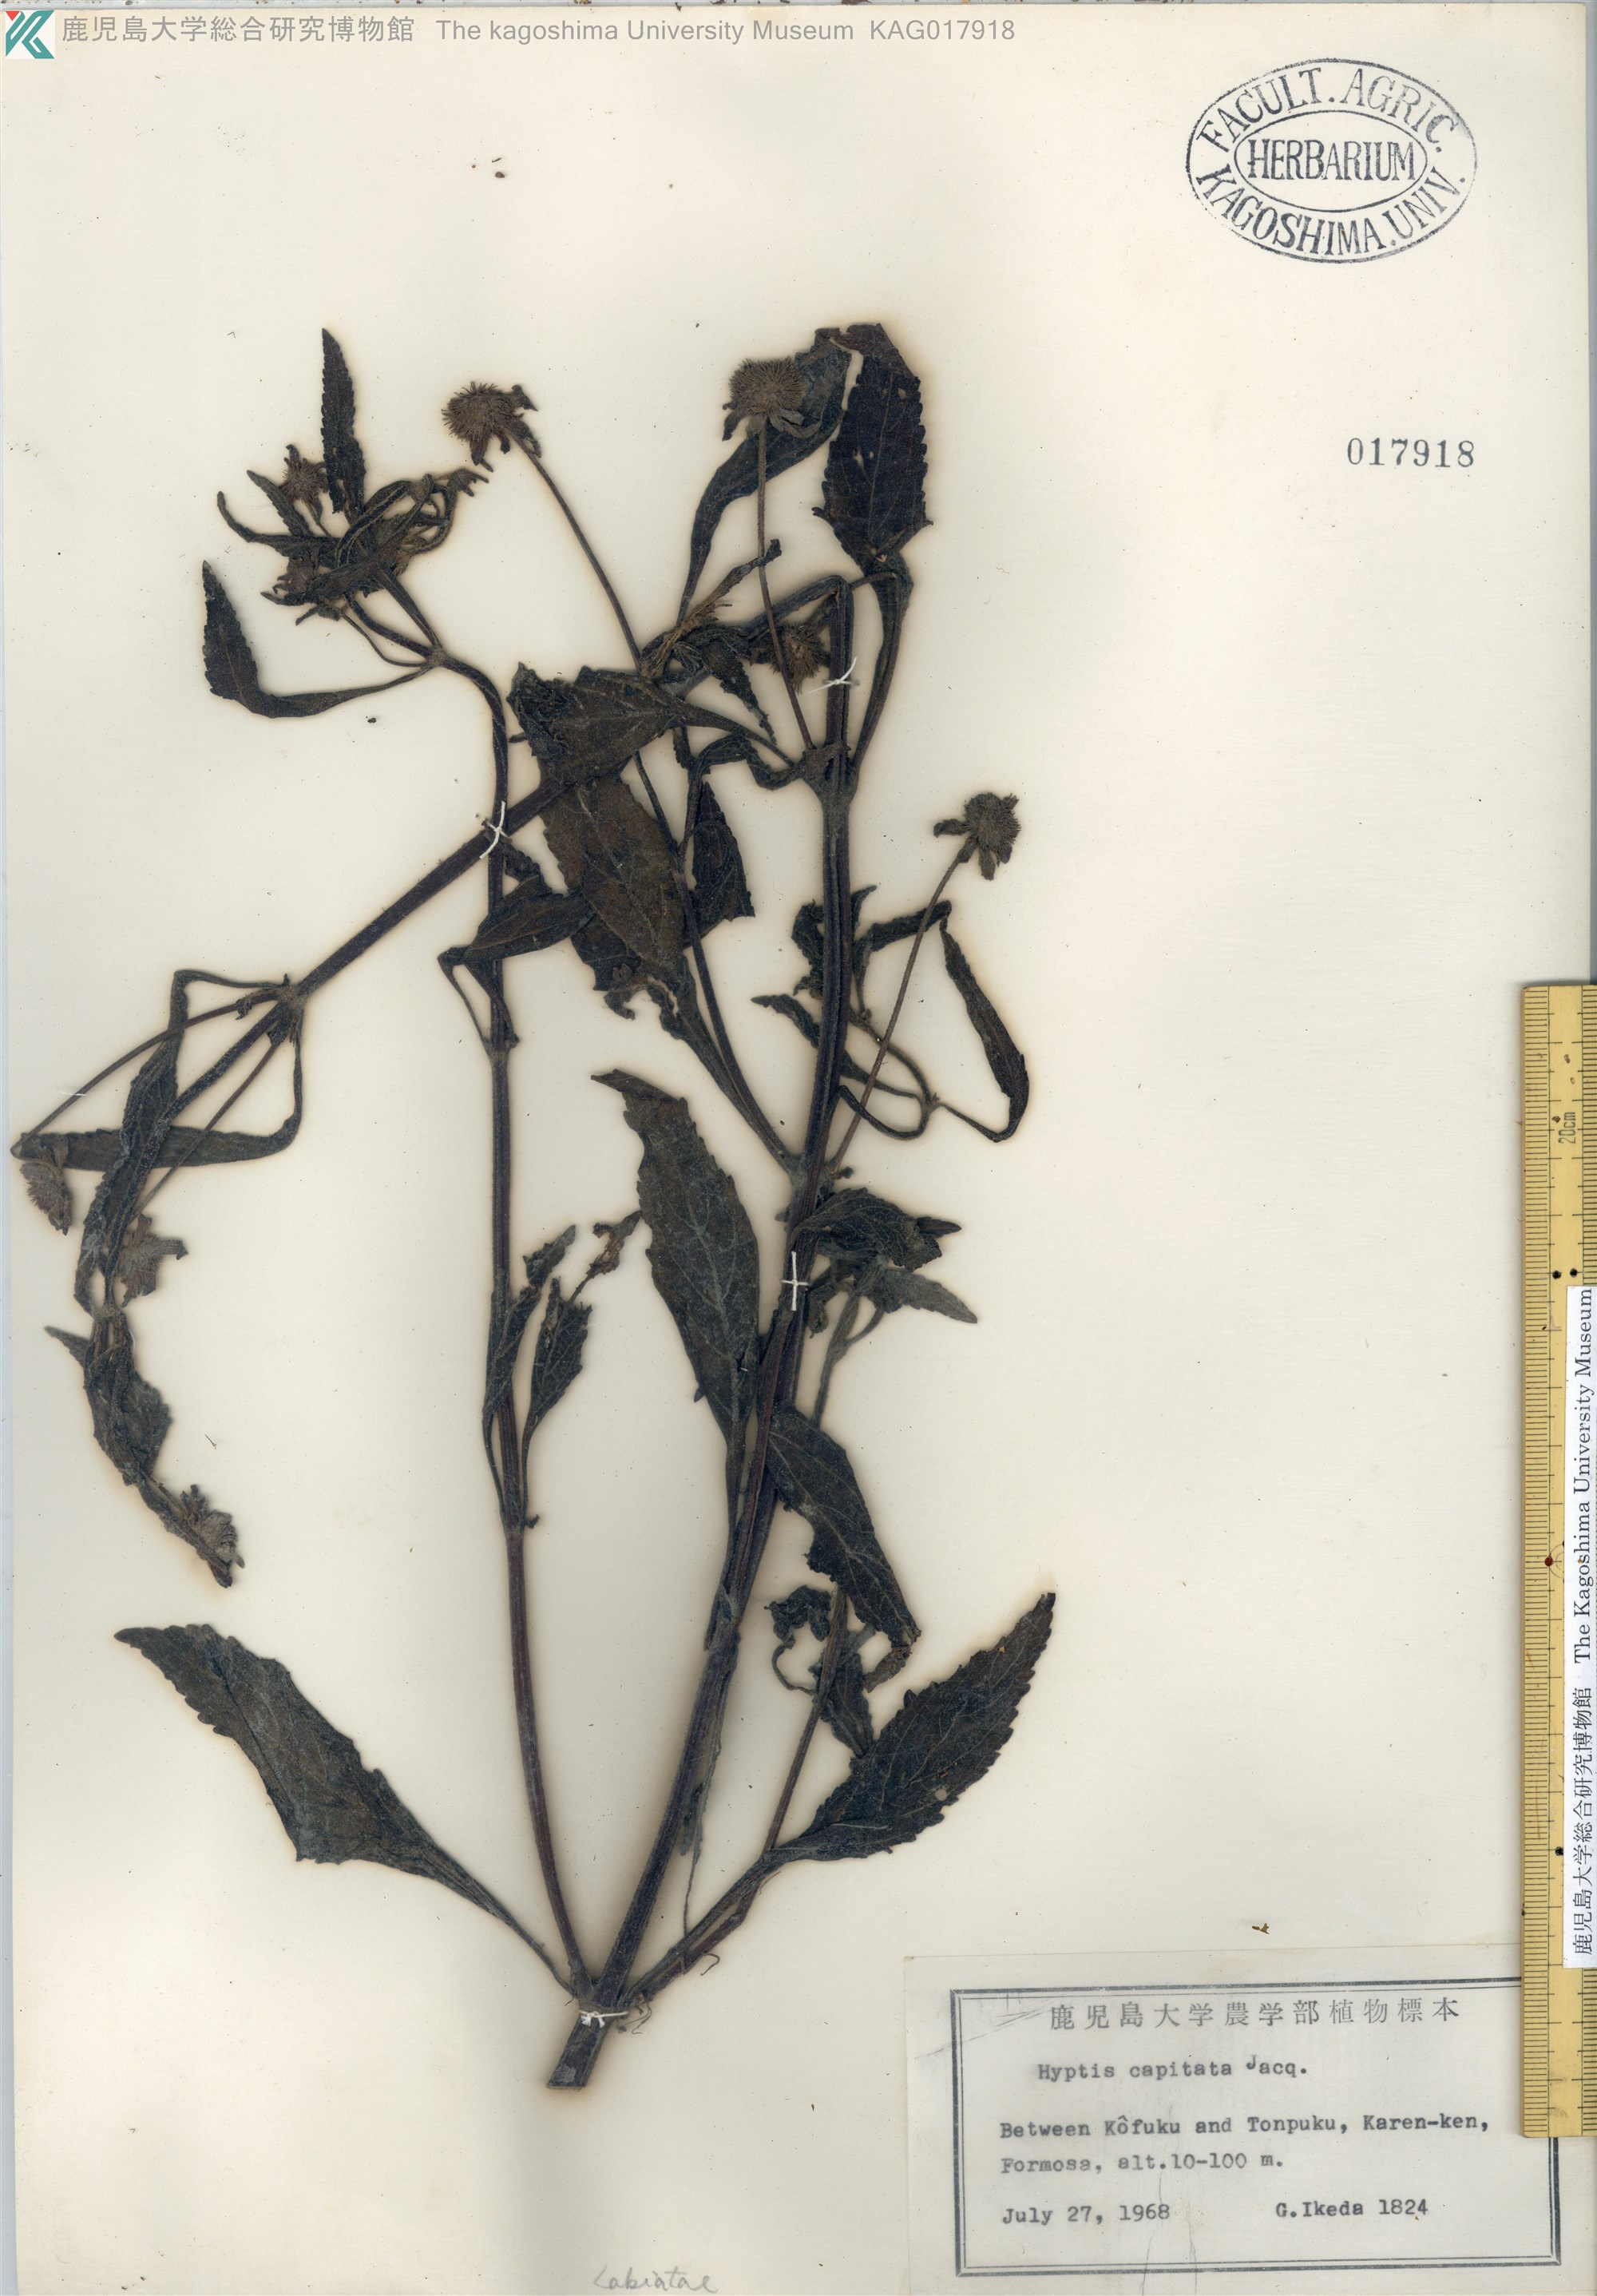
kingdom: Plantae
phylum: Tracheophyta
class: Magnoliopsida
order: Lamiales
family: Lamiaceae
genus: Hyptis
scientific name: Hyptis capitata
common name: False ironwort
